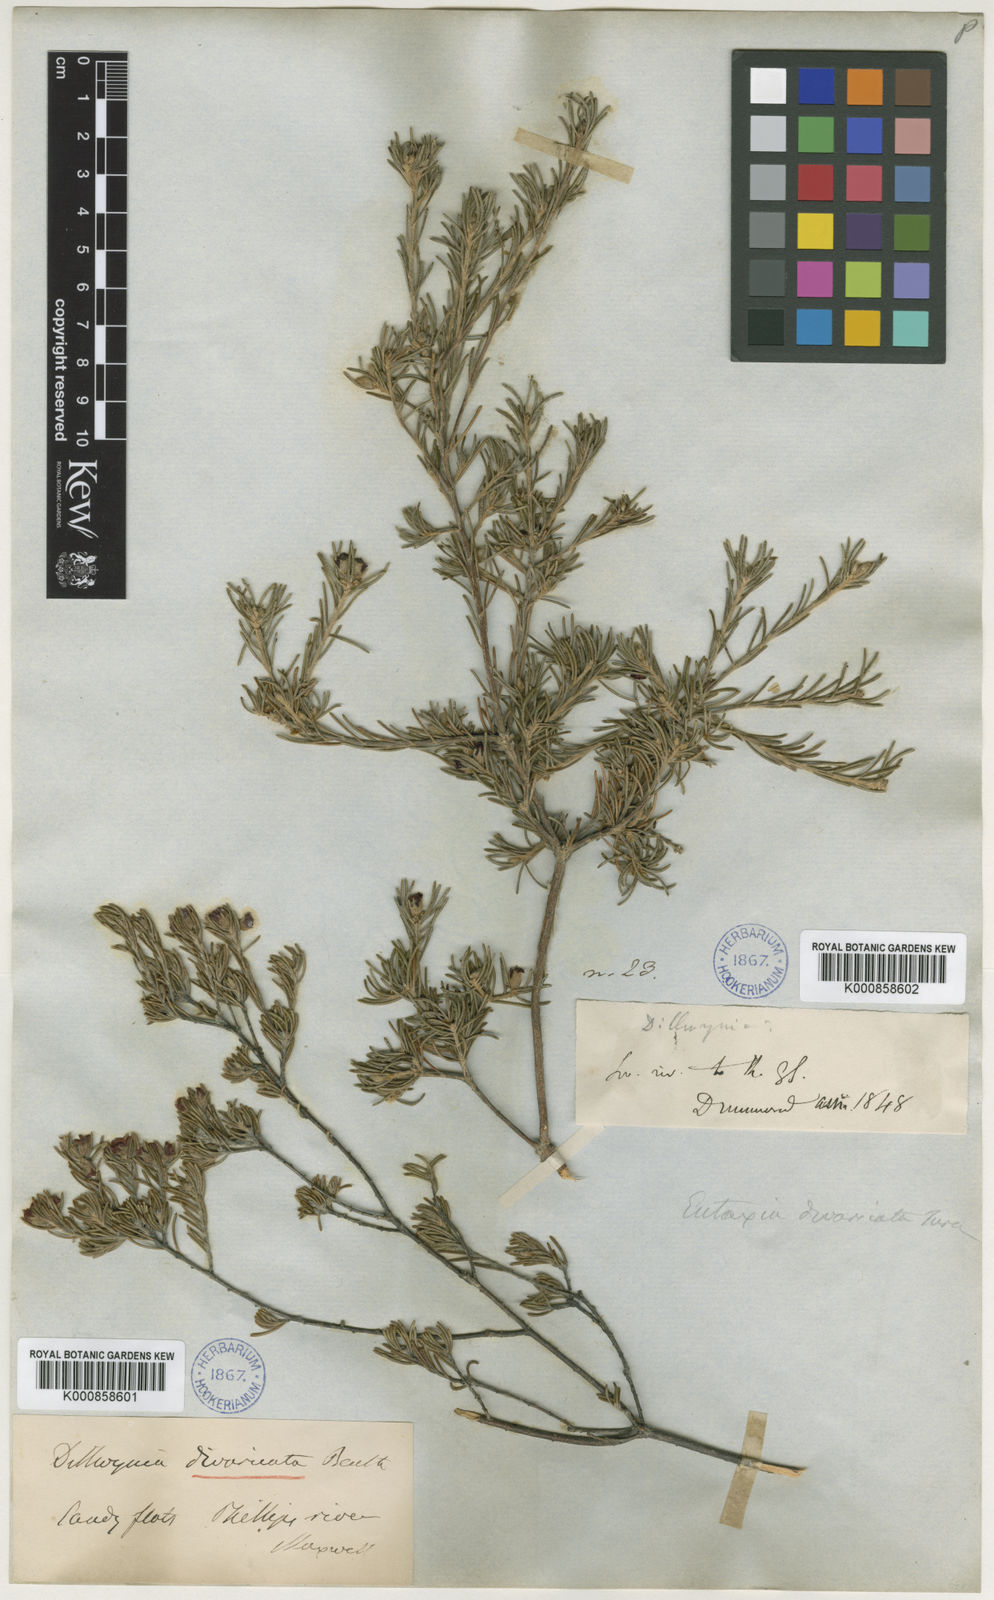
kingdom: Plantae
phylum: Tracheophyta
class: Magnoliopsida
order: Fabales
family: Fabaceae
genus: Dillwynia
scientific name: Dillwynia divaricata
